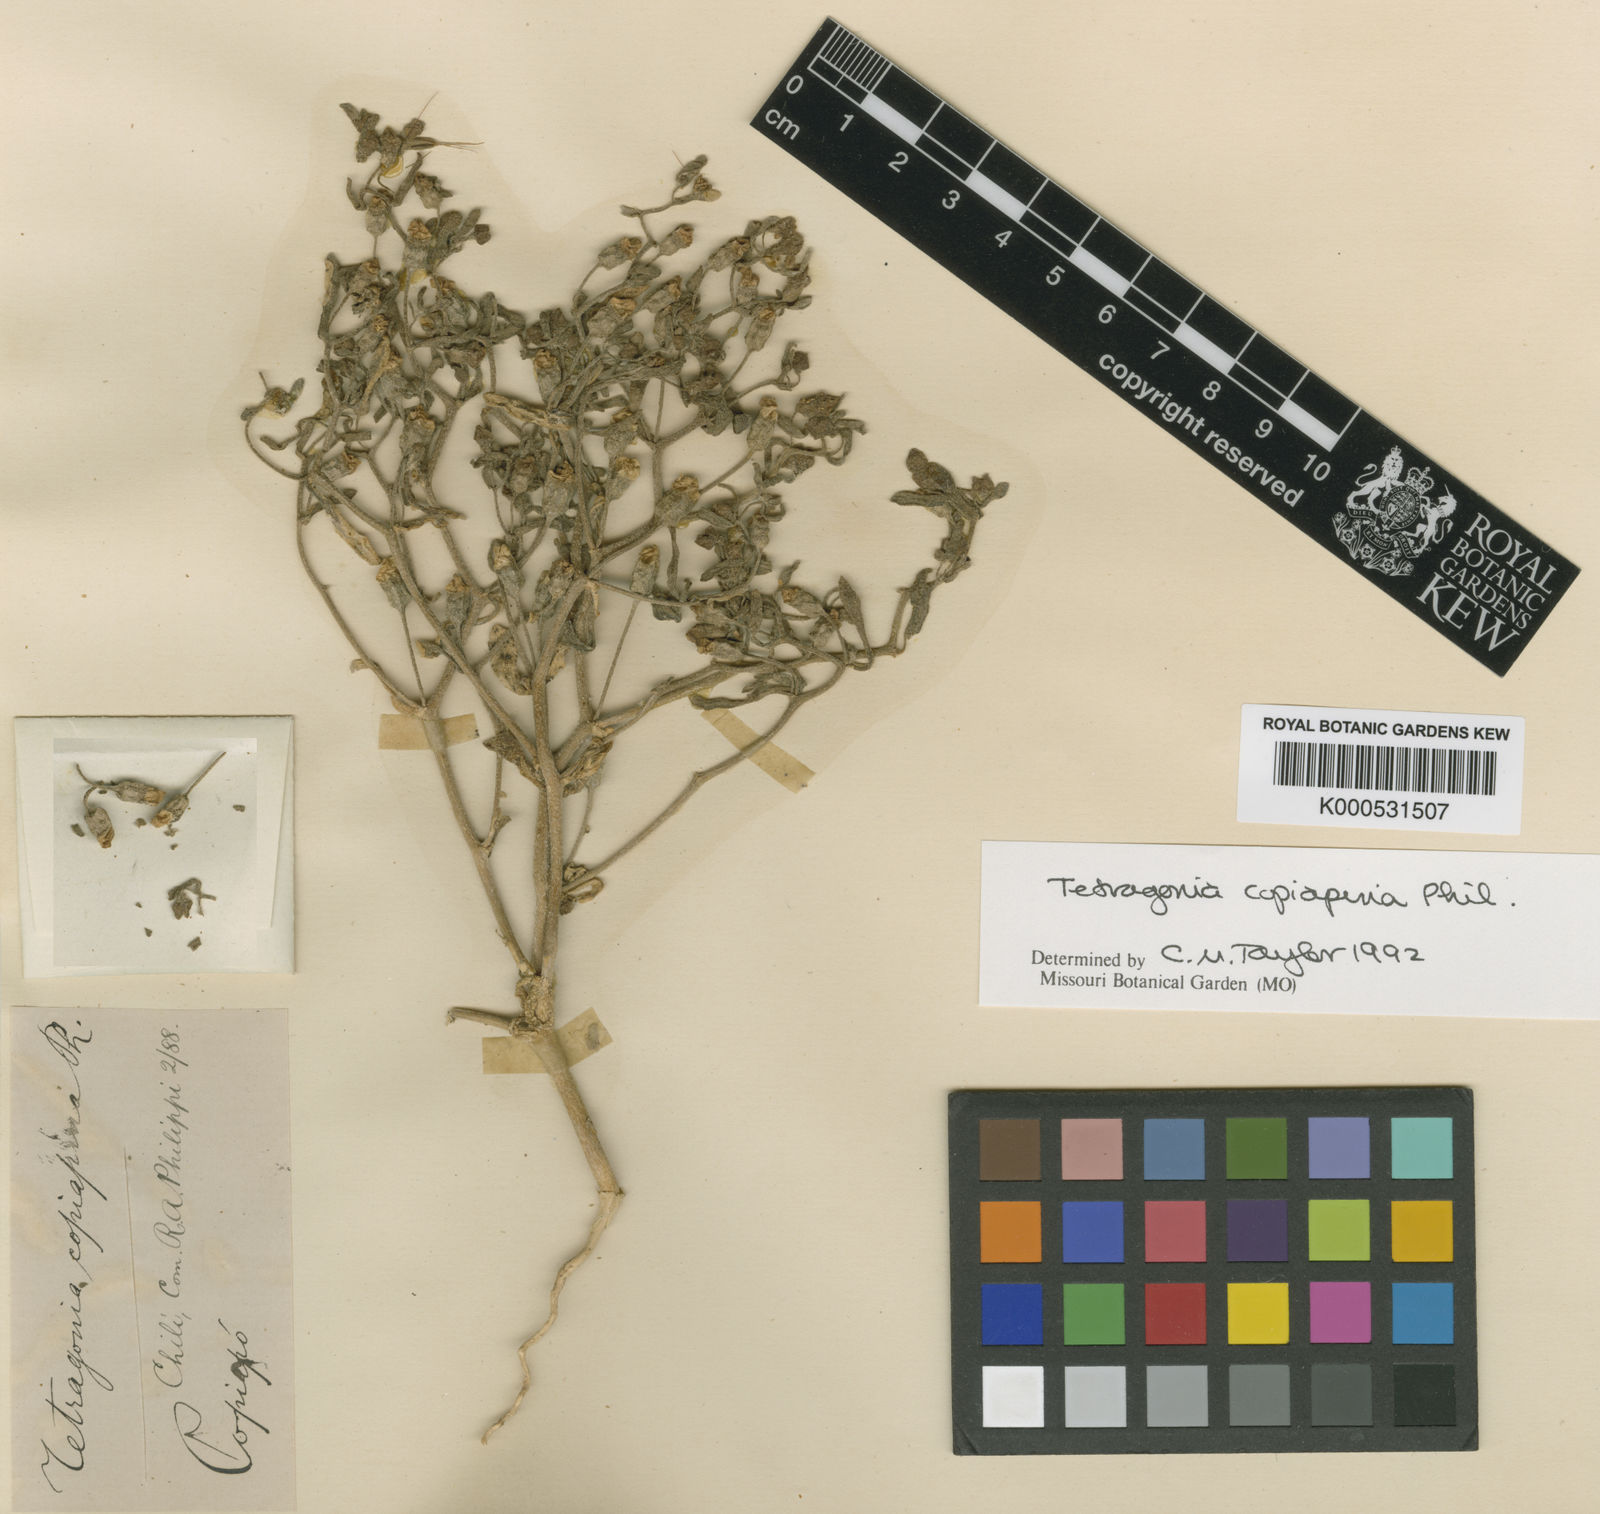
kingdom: Plantae
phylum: Tracheophyta
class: Magnoliopsida
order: Caryophyllales
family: Aizoaceae
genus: Tetragonia
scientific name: Tetragonia copiapina
